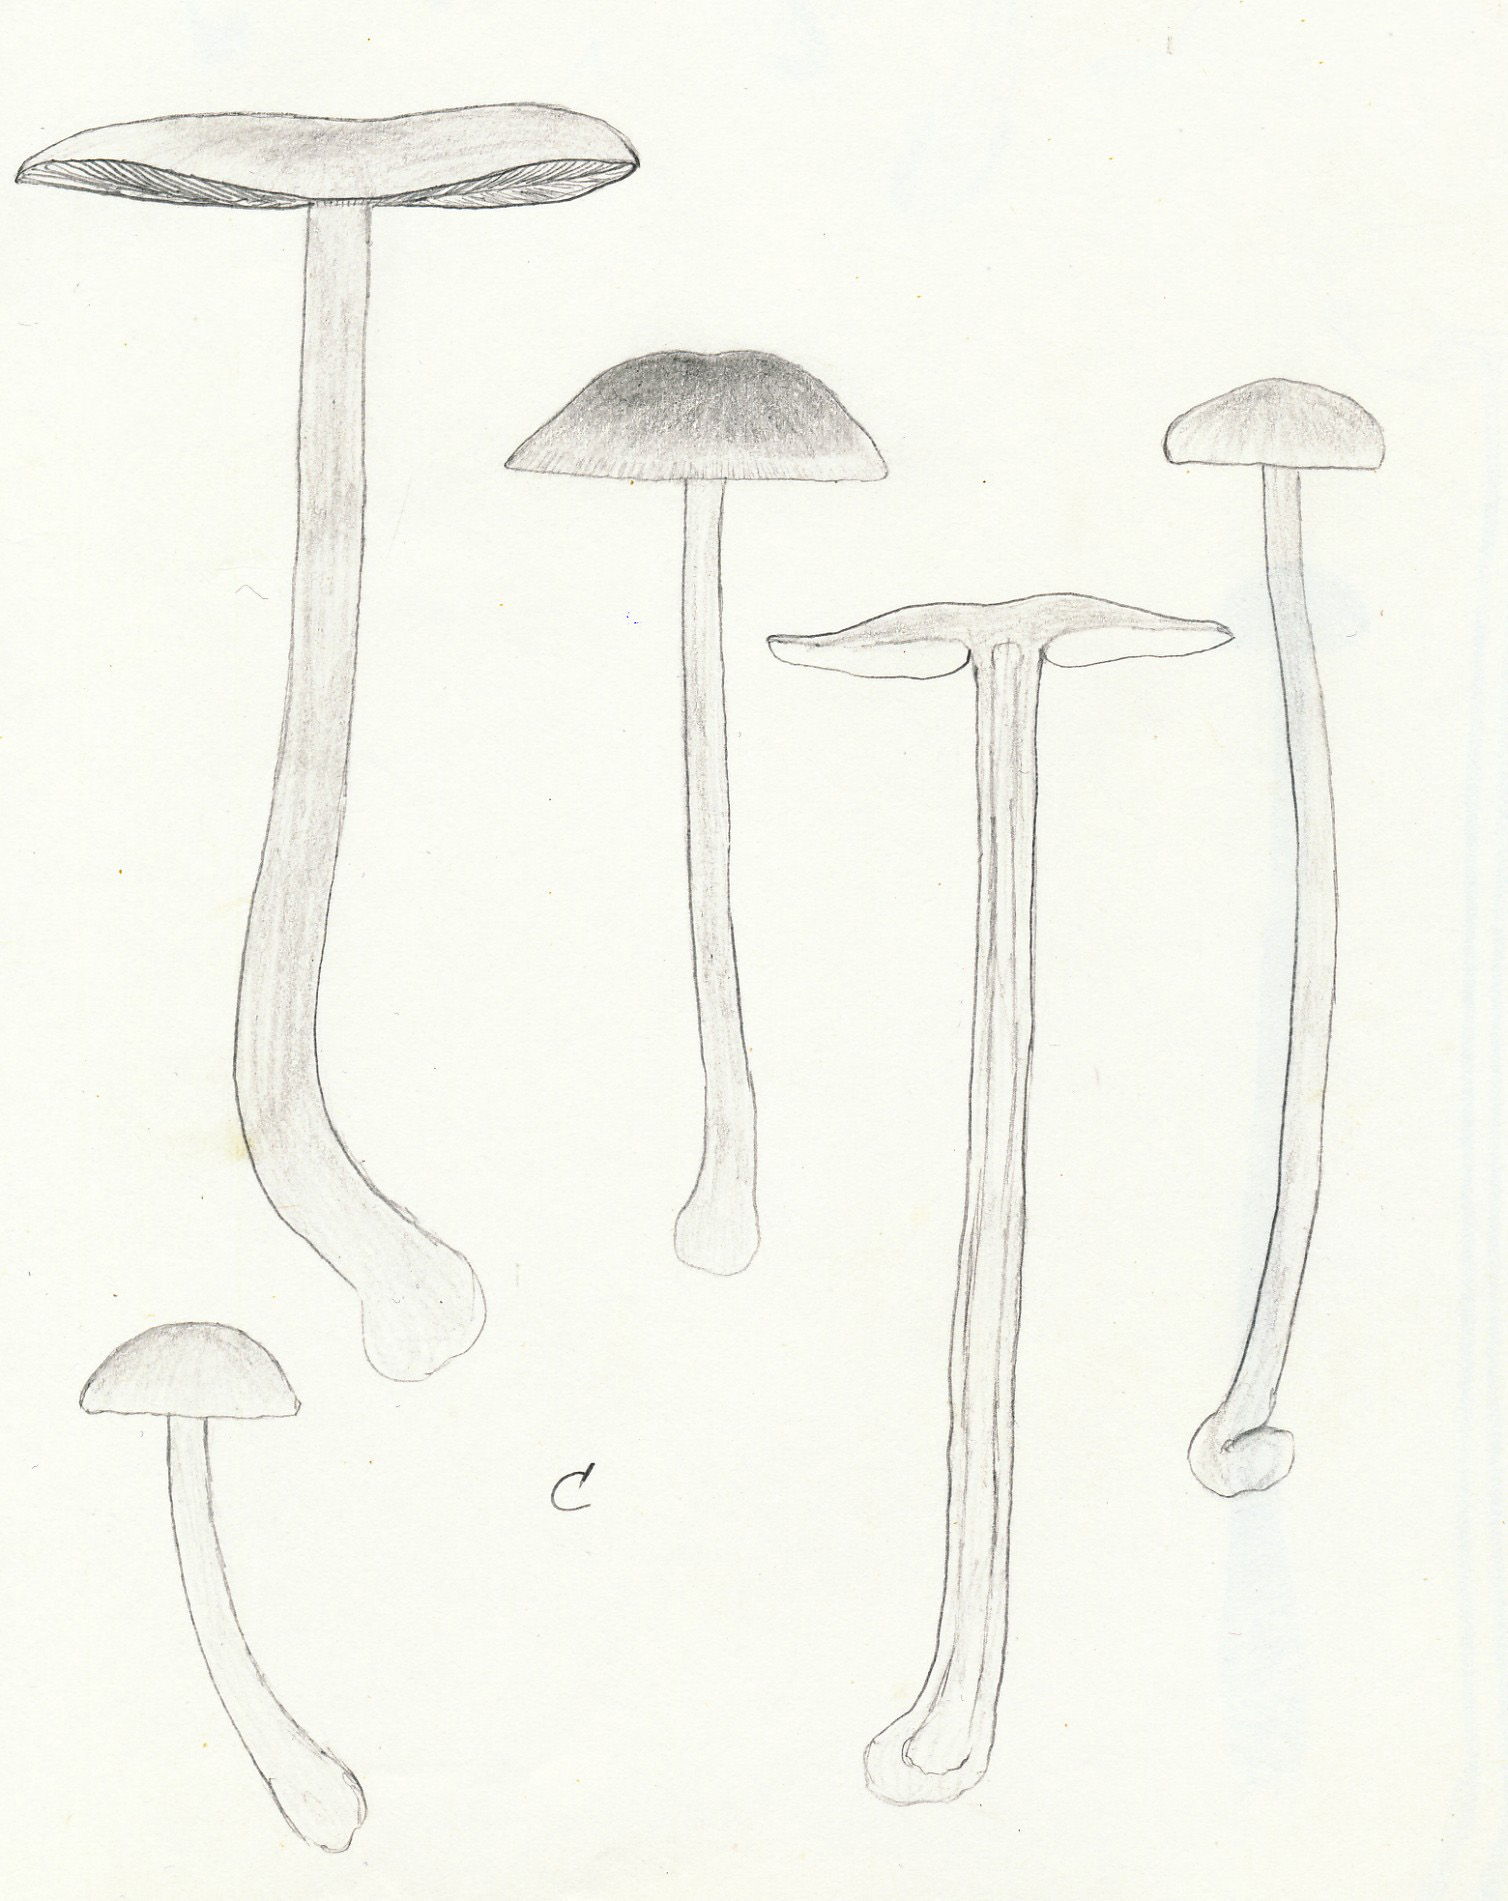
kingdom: Fungi
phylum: Basidiomycota
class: Agaricomycetes
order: Agaricales
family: Omphalotaceae
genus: Gymnopus
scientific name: Gymnopus aquosus
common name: bleg fladhat
